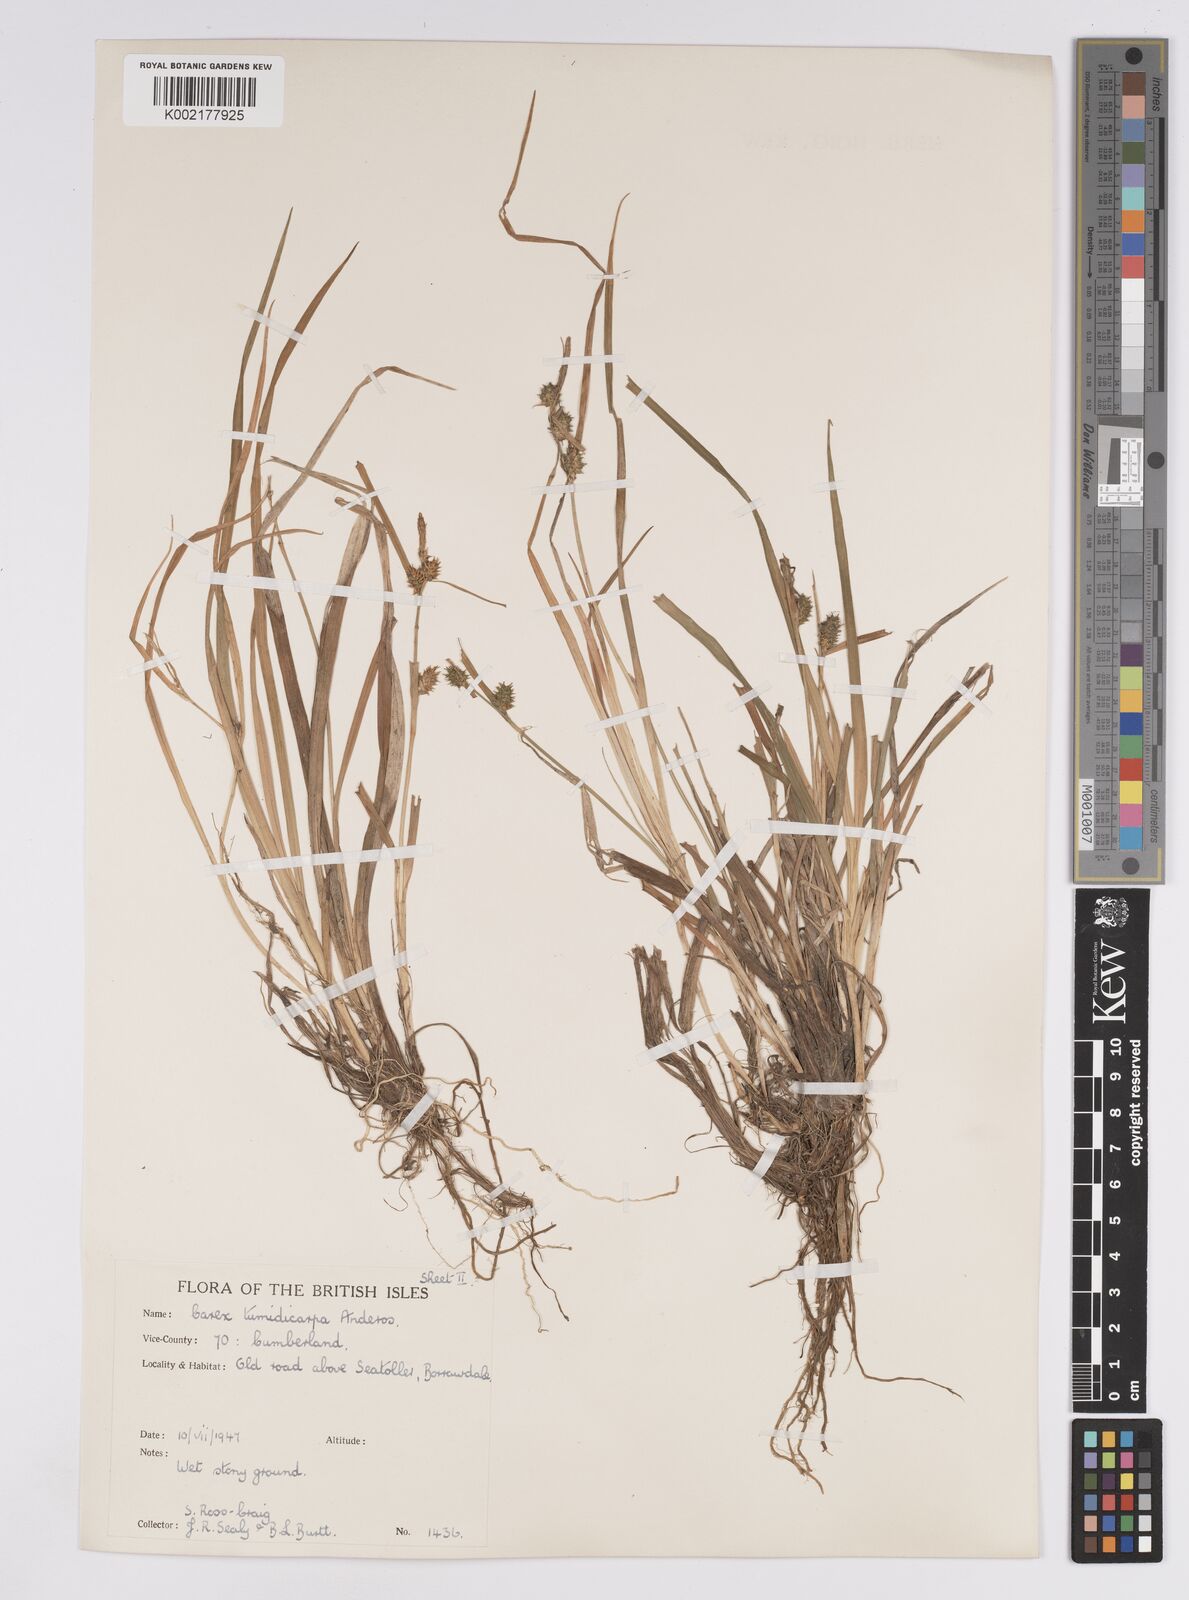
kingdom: Plantae
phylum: Tracheophyta
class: Liliopsida
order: Poales
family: Cyperaceae
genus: Carex
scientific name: Carex demissa
